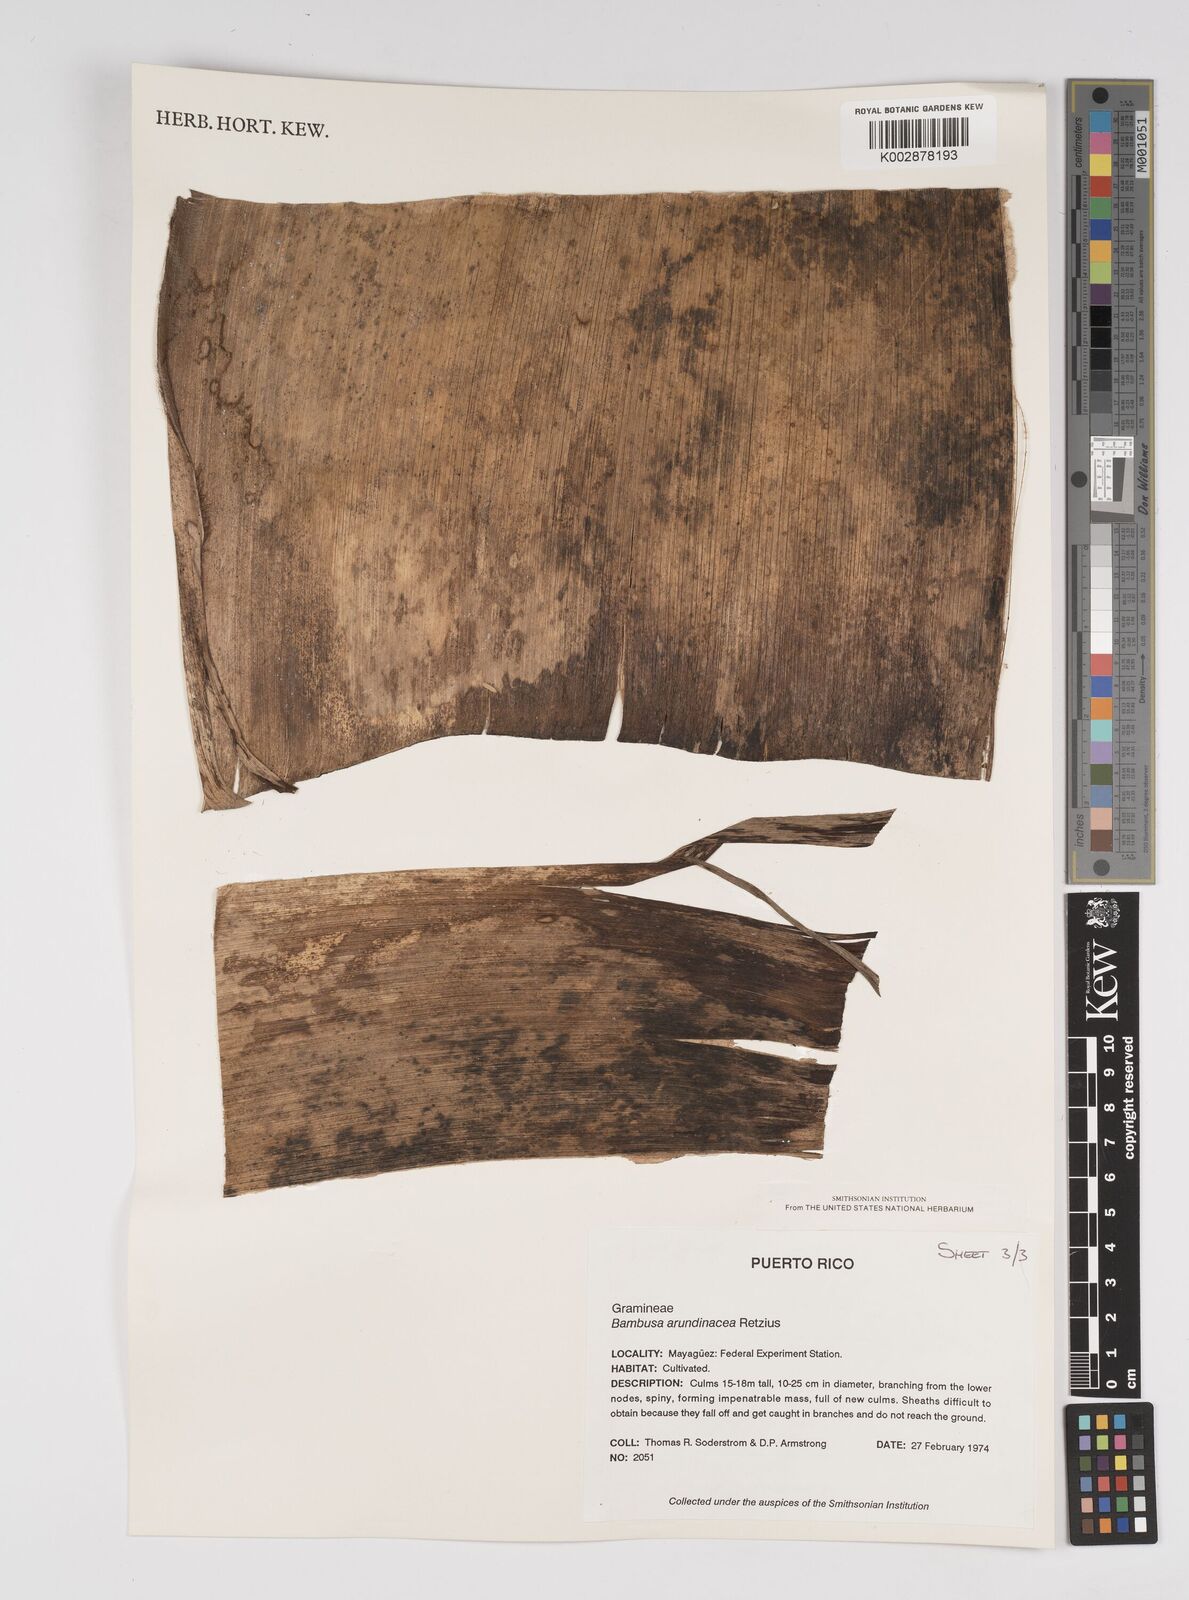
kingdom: Plantae
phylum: Tracheophyta
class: Liliopsida
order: Poales
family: Poaceae
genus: Bambusa
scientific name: Bambusa bambos
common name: Indian thorny bamboo
